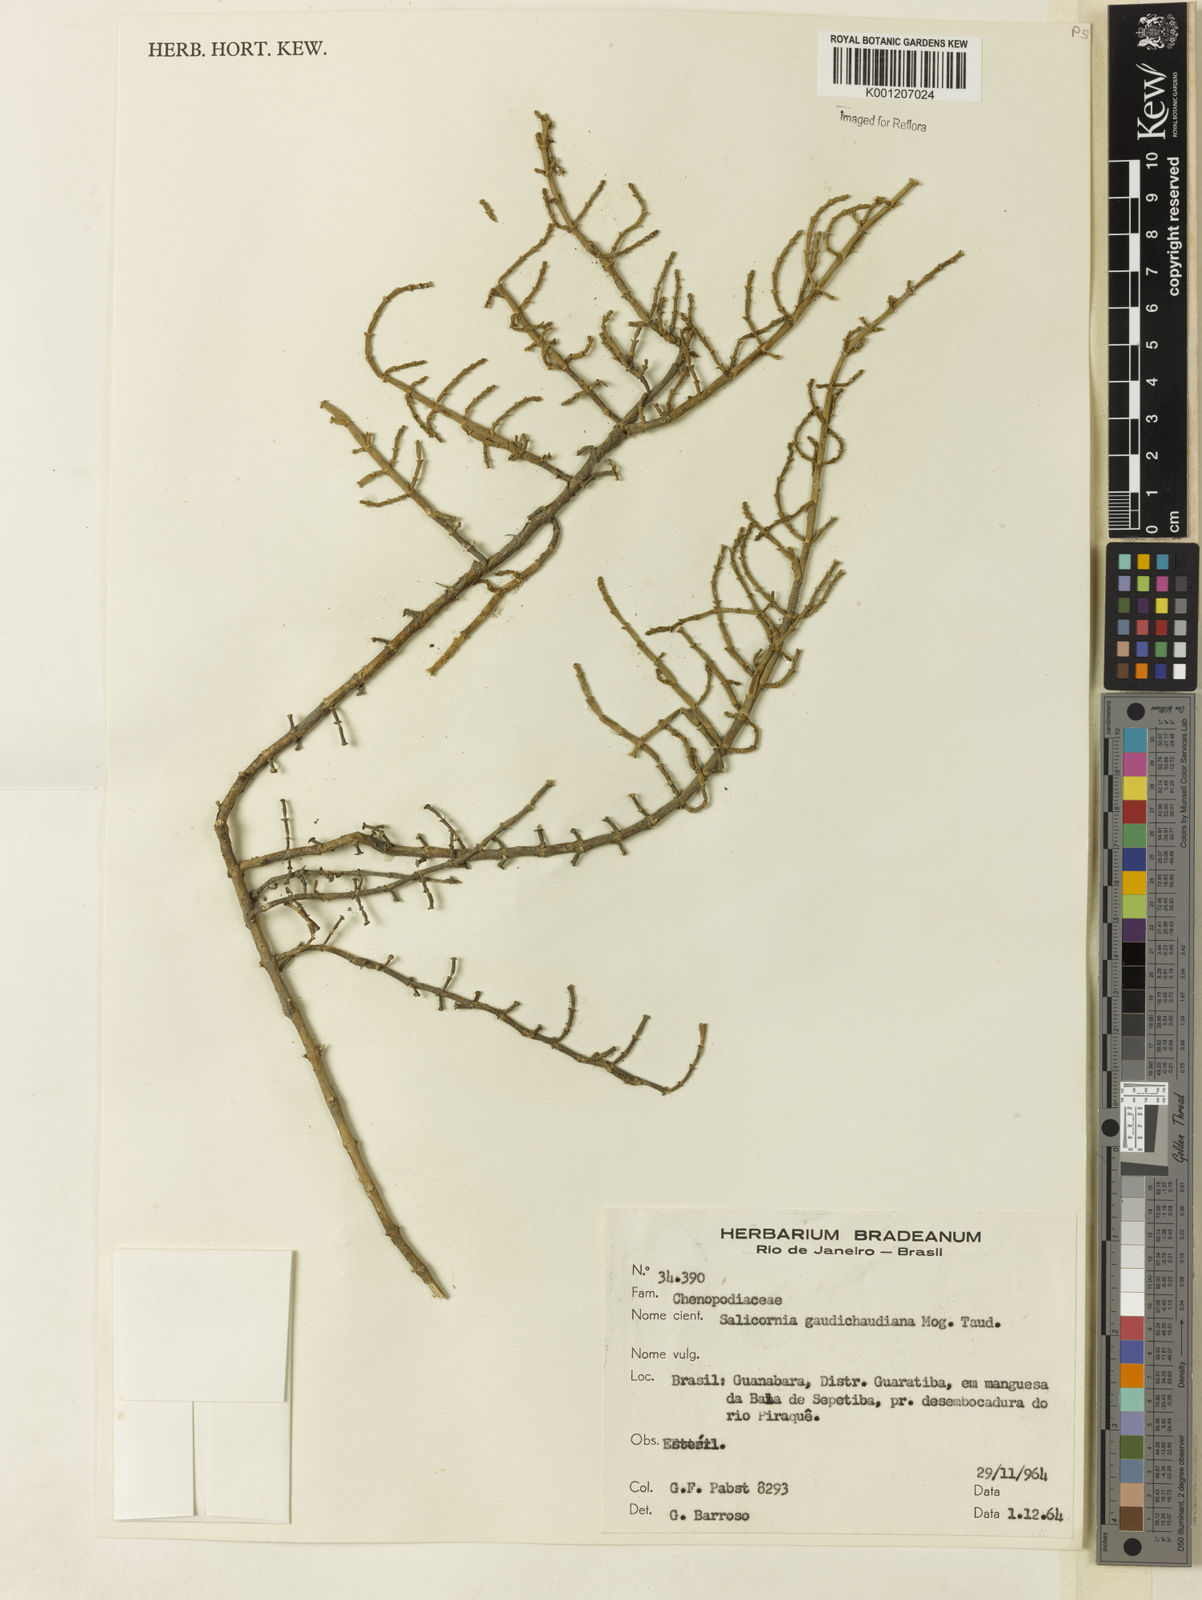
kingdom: Plantae
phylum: Tracheophyta
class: Magnoliopsida
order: Caryophyllales
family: Amaranthaceae
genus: Salicornia
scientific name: Salicornia
